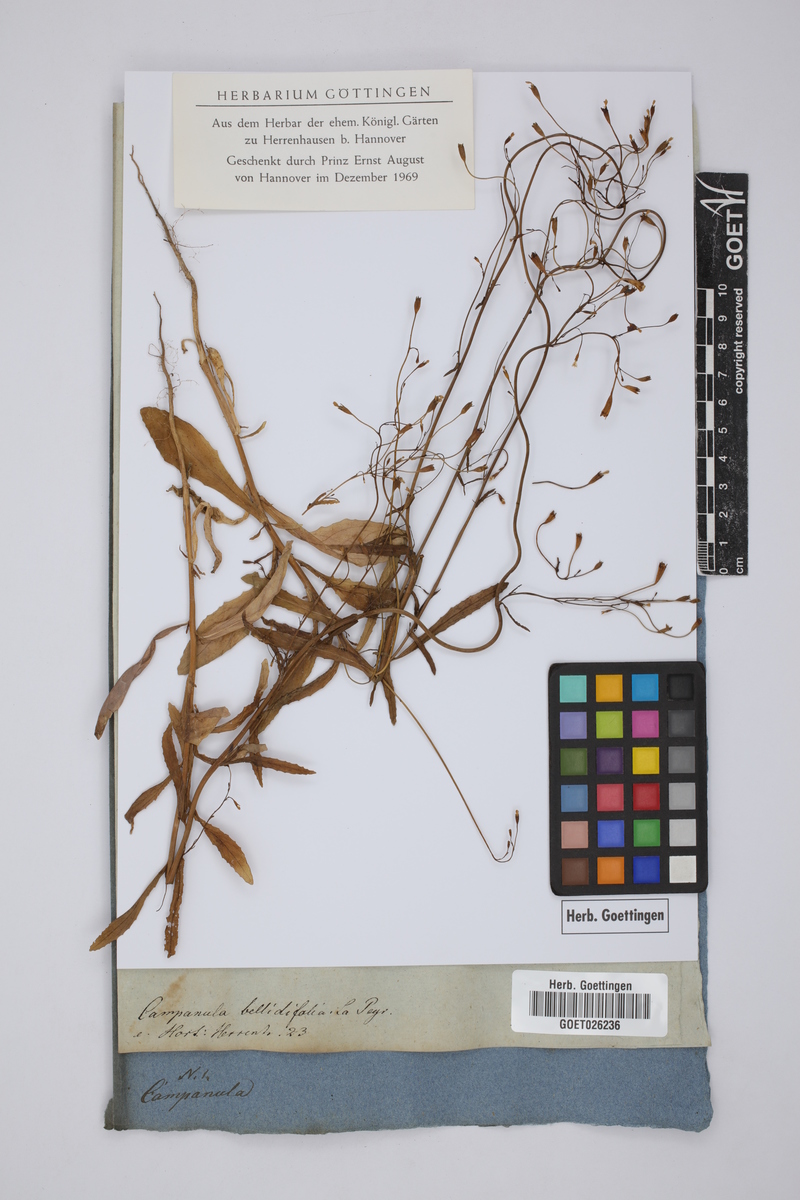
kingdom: Plantae
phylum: Tracheophyta
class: Magnoliopsida
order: Asterales
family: Campanulaceae
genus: Campanula
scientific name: Campanula patula
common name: Spreading bellflower
